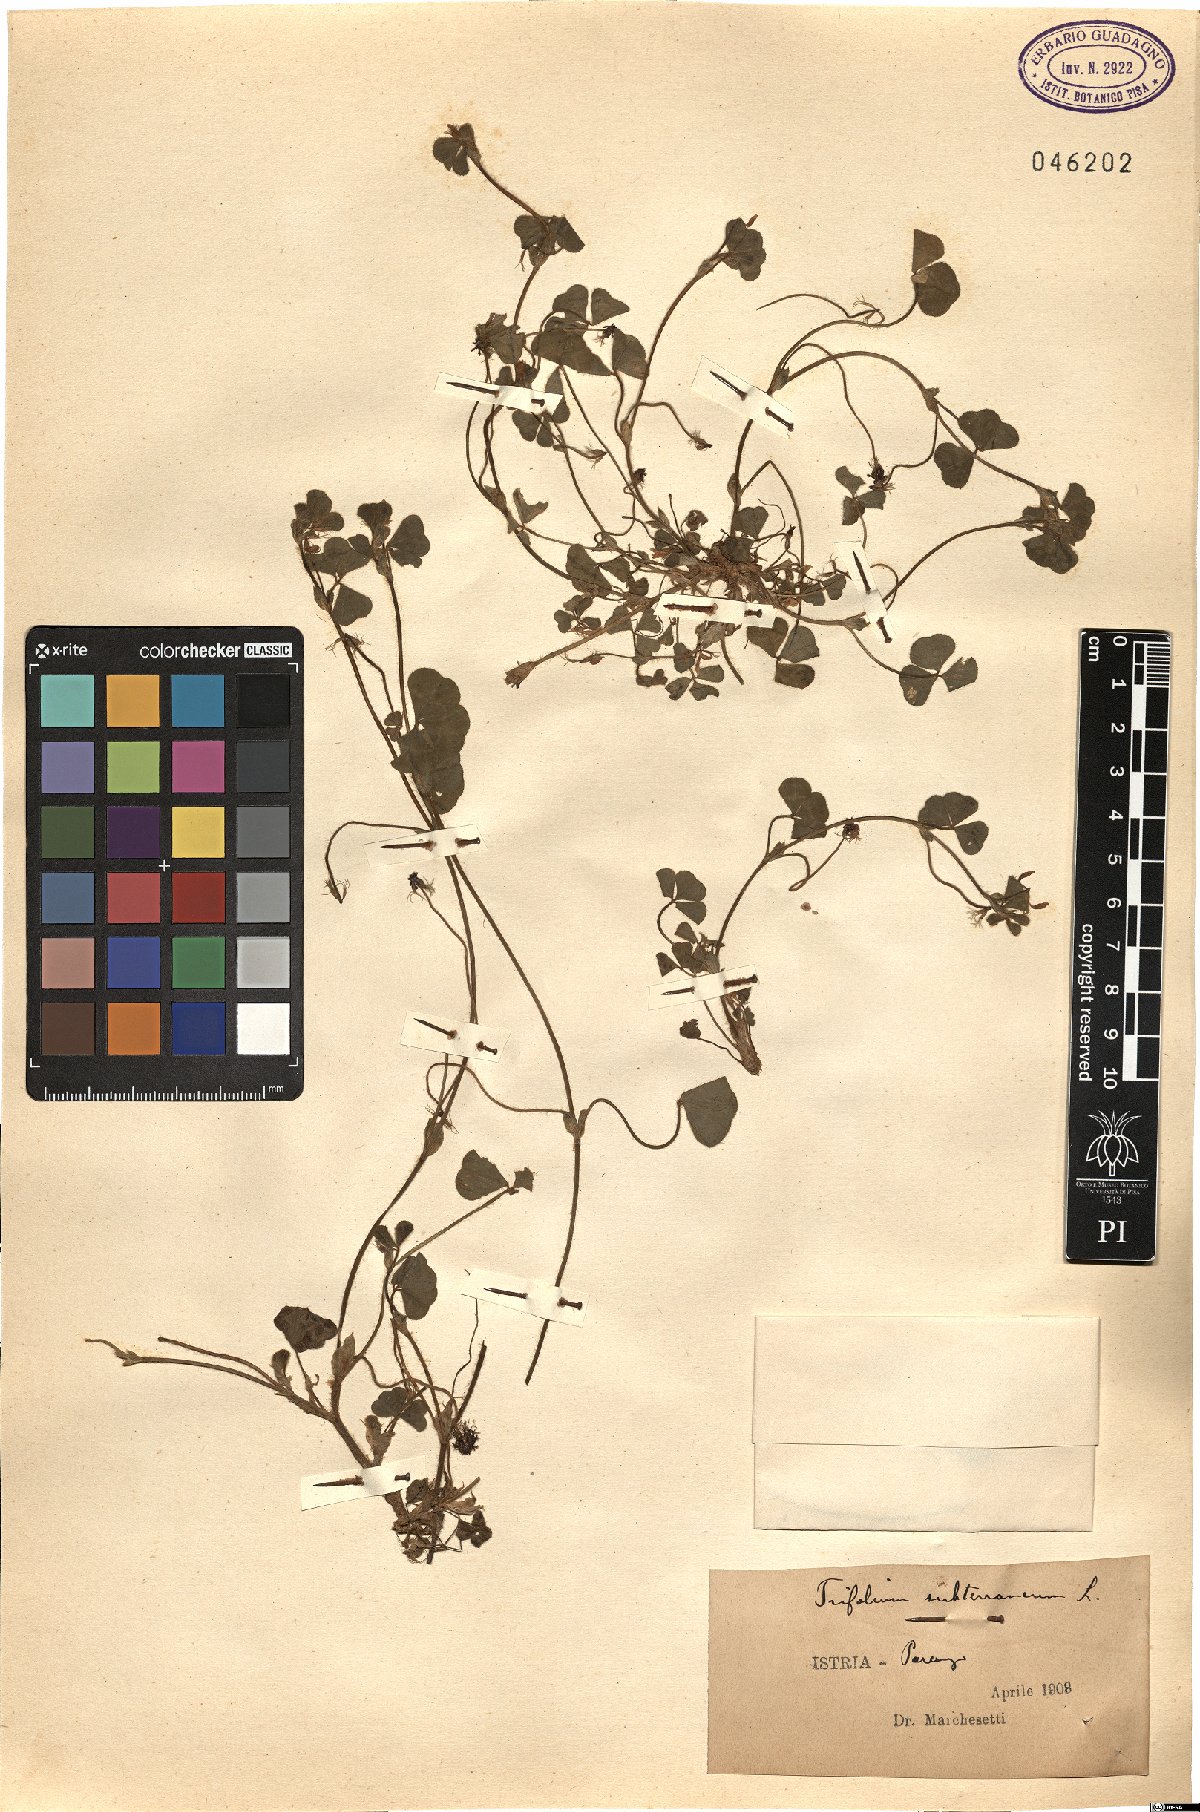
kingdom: Plantae
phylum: Tracheophyta
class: Magnoliopsida
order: Fabales
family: Fabaceae
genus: Trifolium
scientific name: Trifolium subterraneum
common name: Subterranean clover
